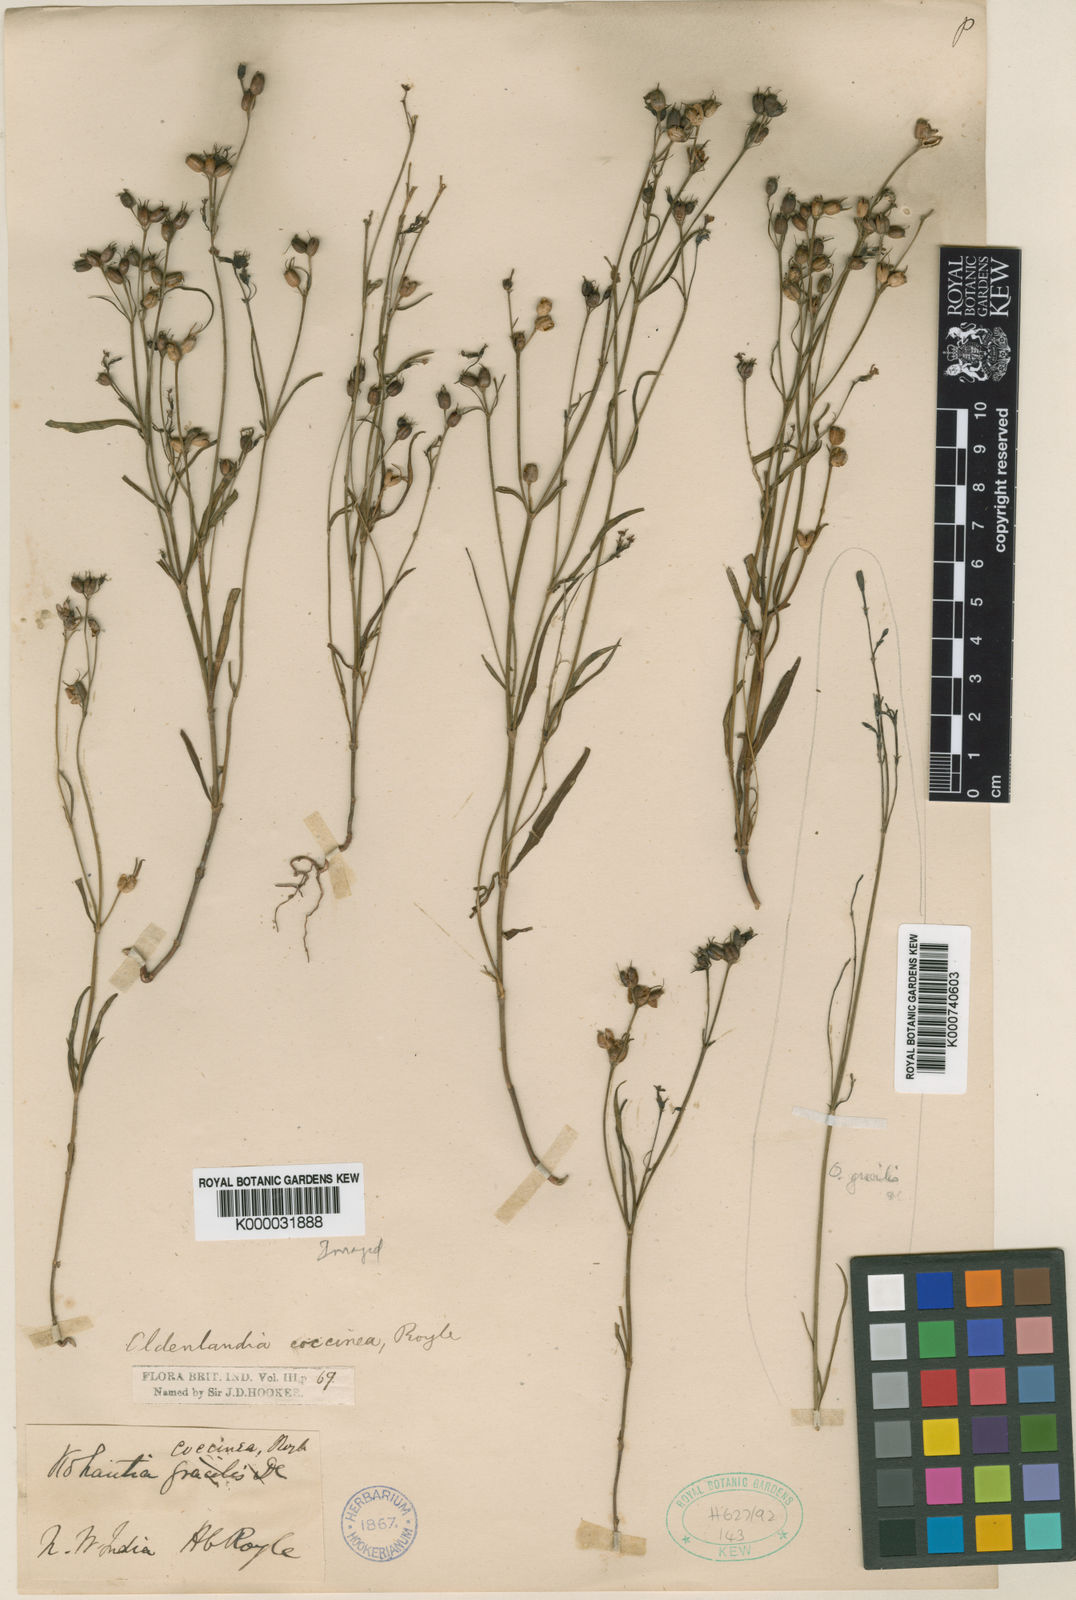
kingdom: Plantae
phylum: Tracheophyta
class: Magnoliopsida
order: Gentianales
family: Rubiaceae
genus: Kohautia
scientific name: Kohautia coccinea
